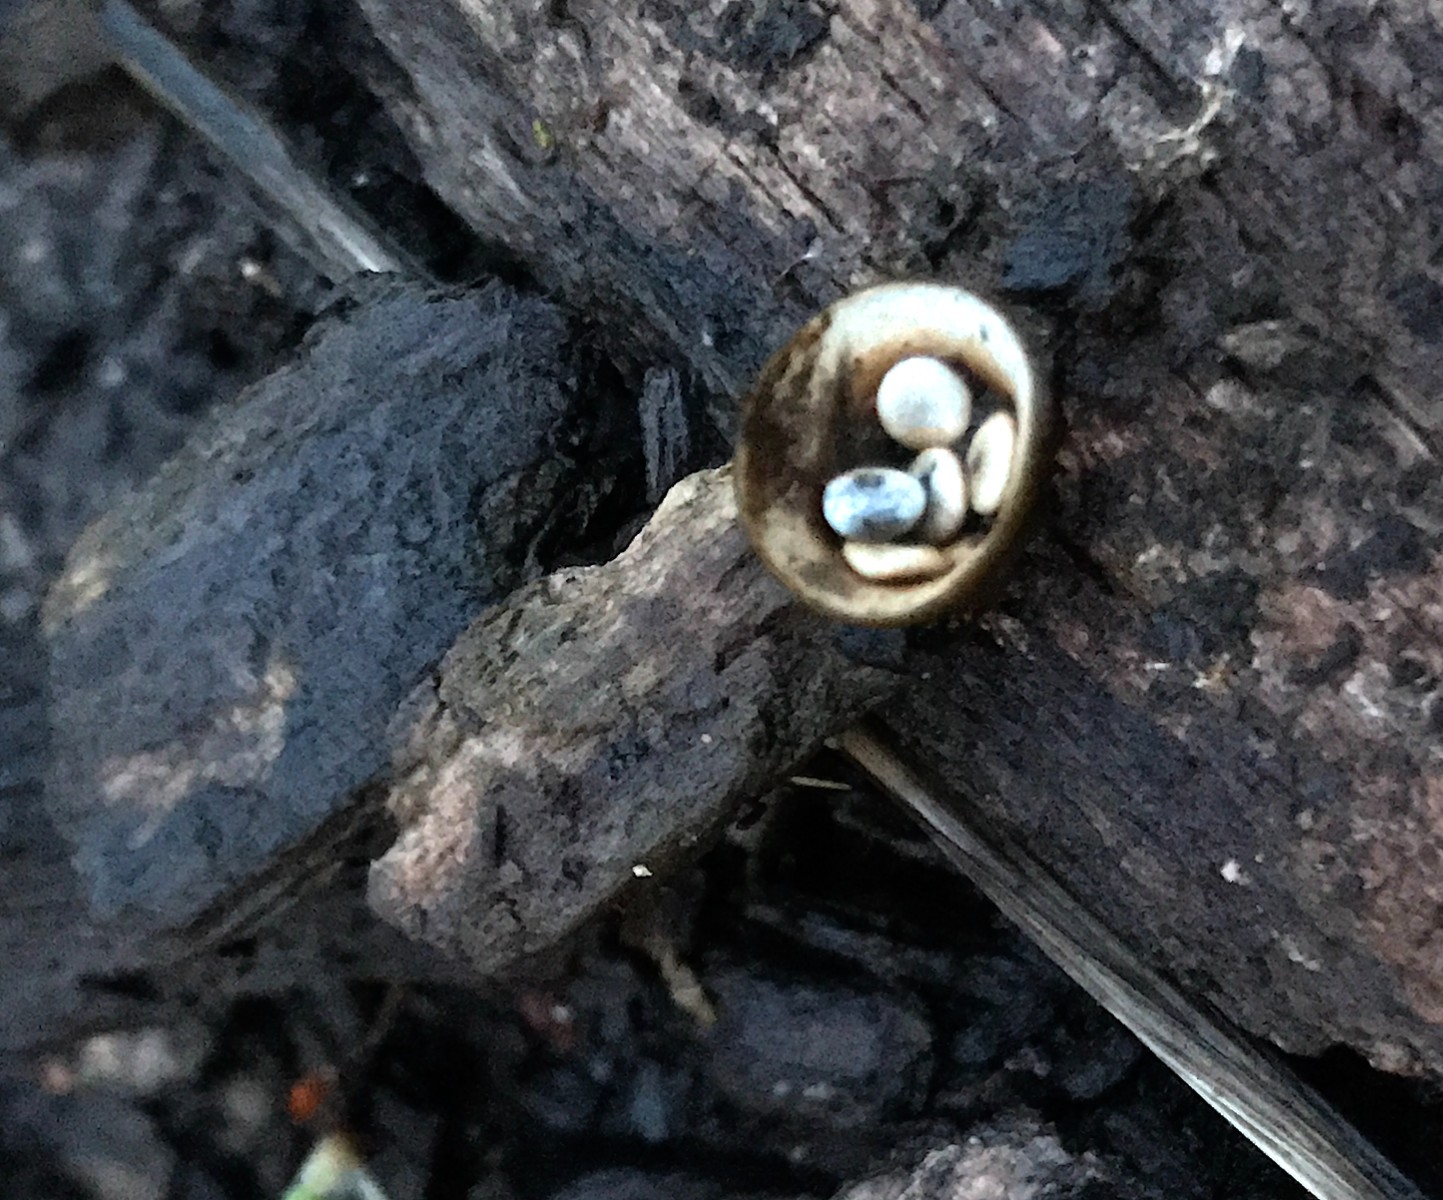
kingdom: Fungi
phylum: Basidiomycota
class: Agaricomycetes
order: Agaricales
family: Nidulariaceae
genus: Crucibulum
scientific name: Crucibulum crucibuliforme
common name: krukkesvamp
